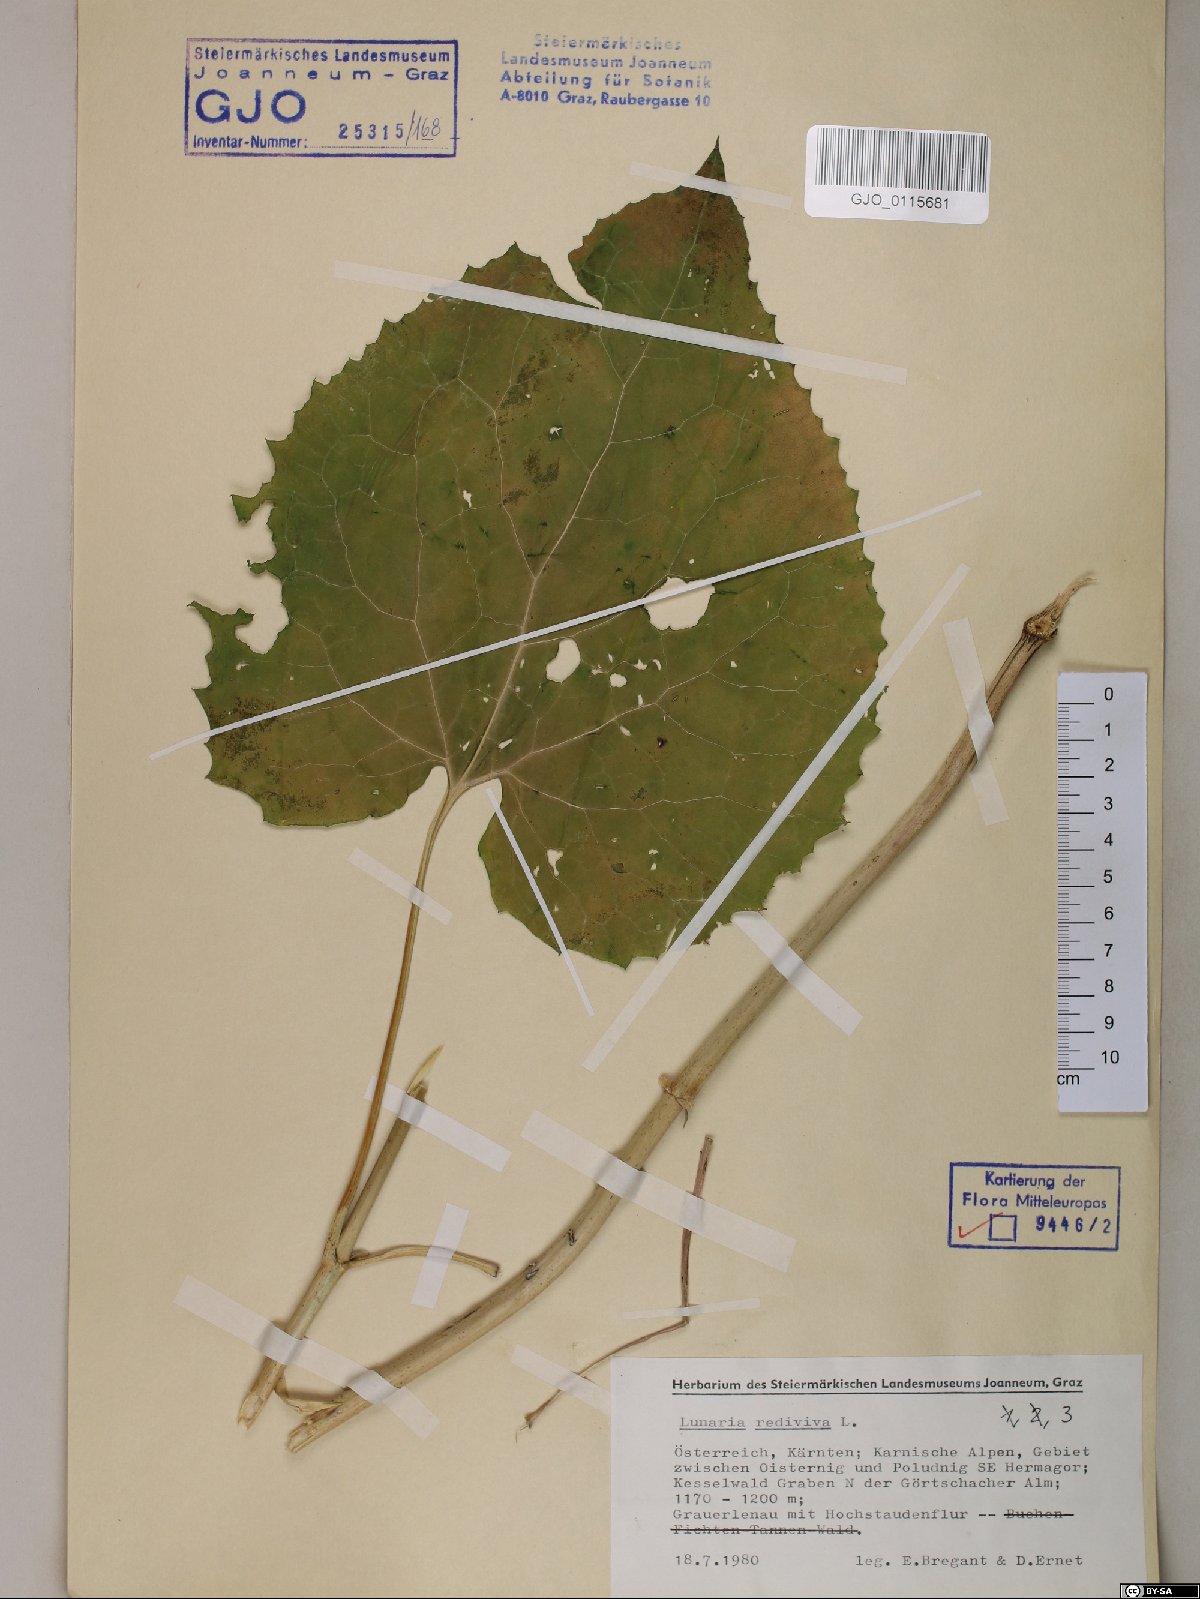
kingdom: Plantae
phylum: Tracheophyta
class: Magnoliopsida
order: Brassicales
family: Brassicaceae
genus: Lunaria
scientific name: Lunaria rediviva
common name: Perennial honesty
